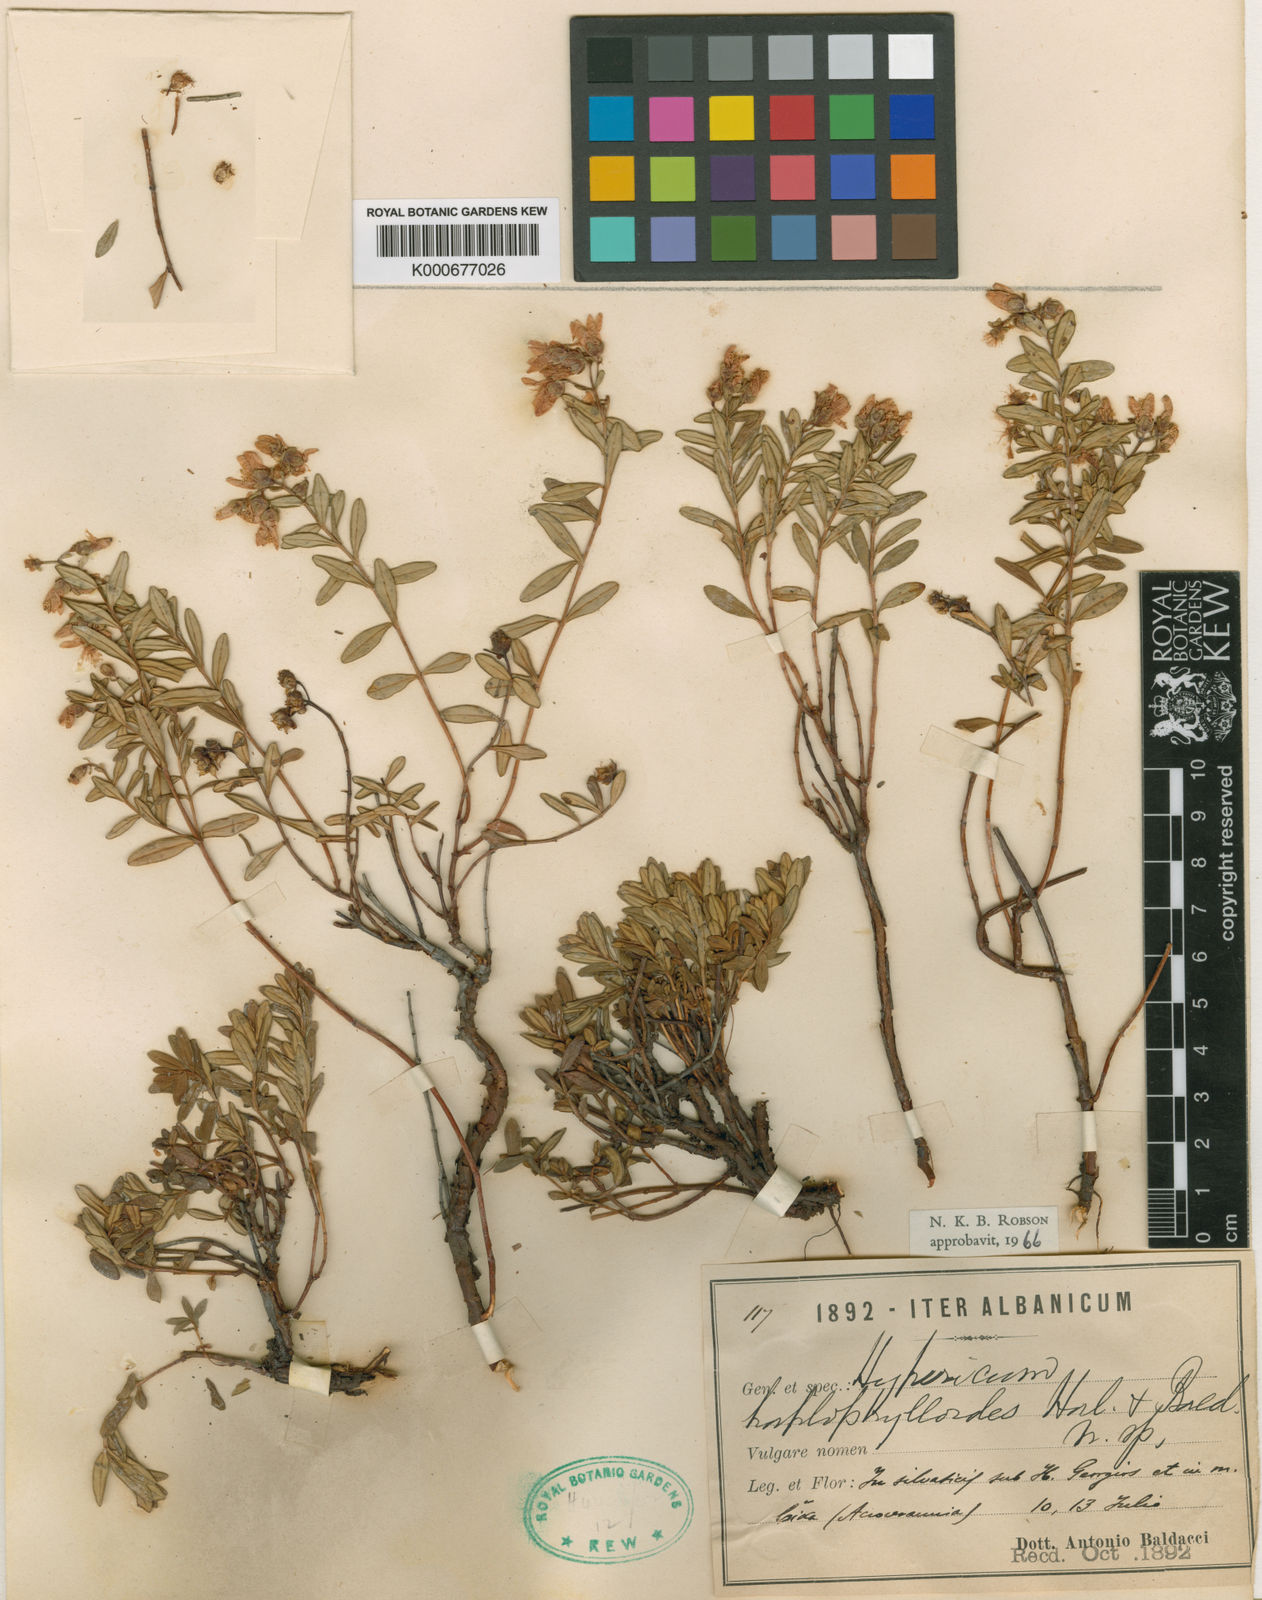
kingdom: Plantae
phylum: Tracheophyta
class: Magnoliopsida
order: Malpighiales
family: Hypericaceae
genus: Hypericum
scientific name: Hypericum haplophylloides
